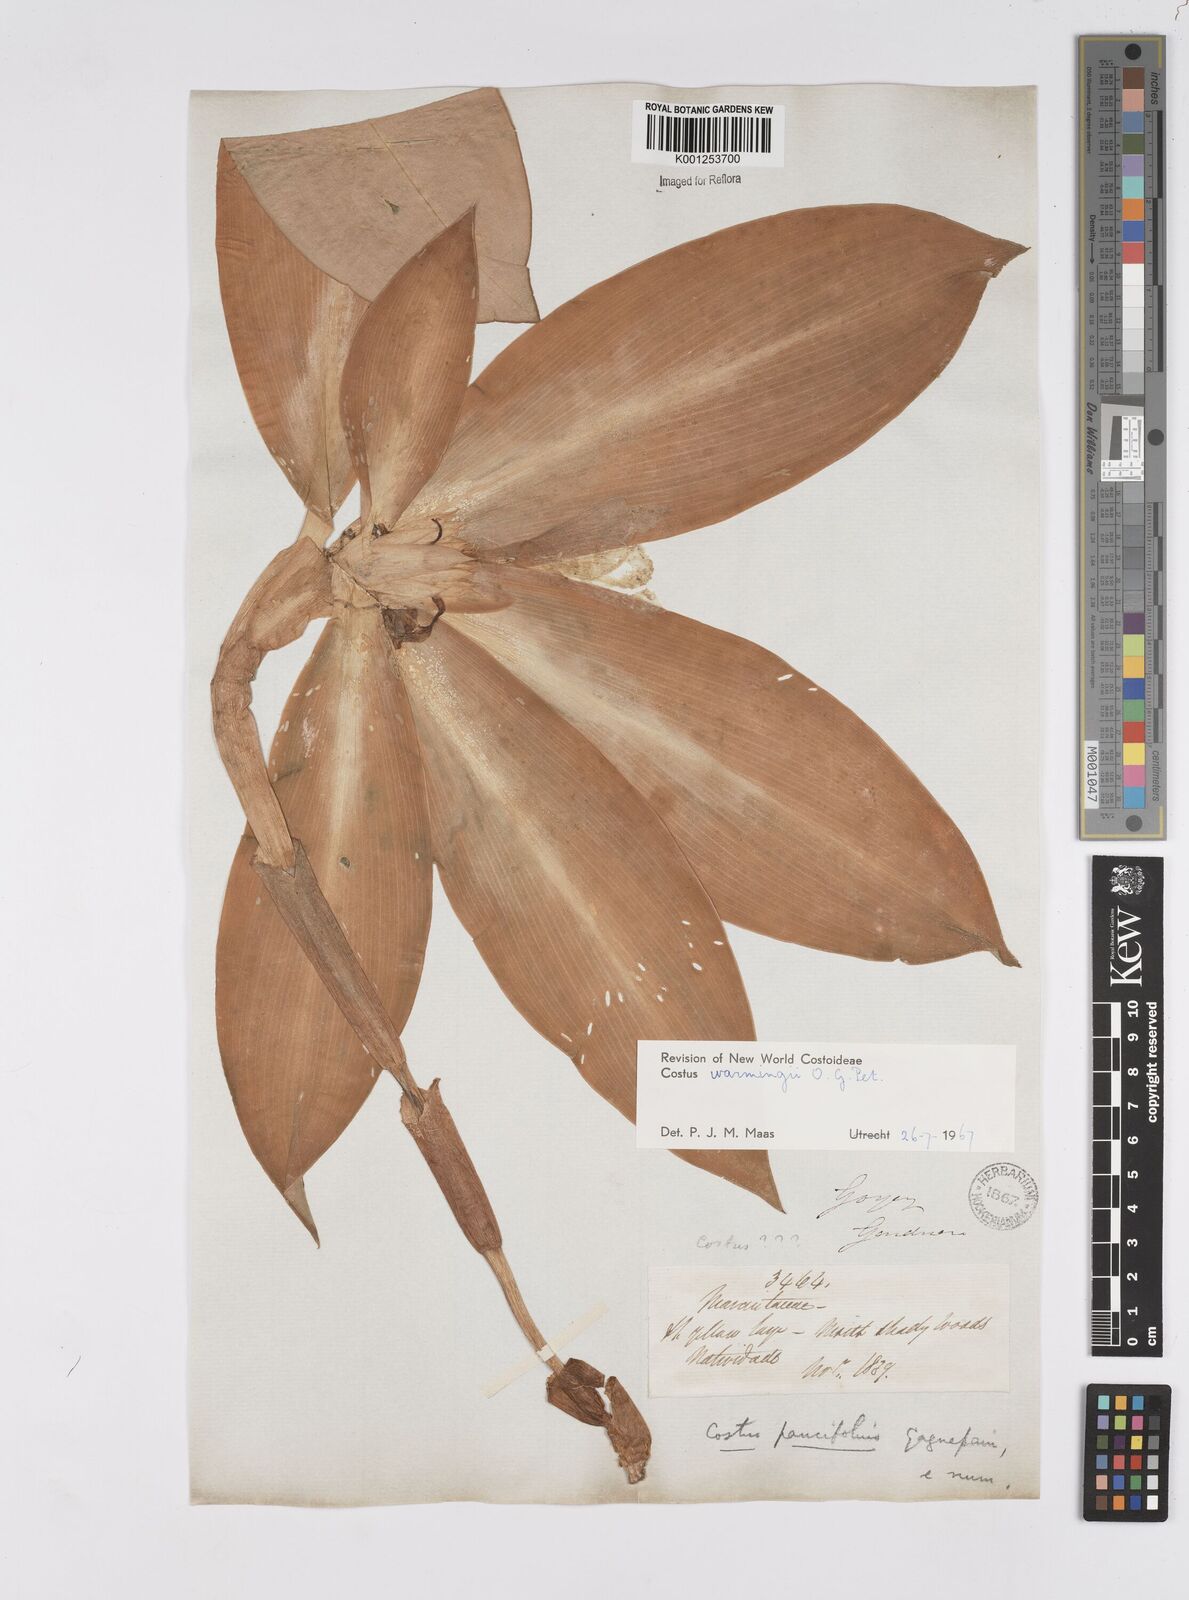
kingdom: Plantae
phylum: Tracheophyta
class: Liliopsida
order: Zingiberales
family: Costaceae
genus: Chamaecostus
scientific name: Chamaecostus subsessilis
